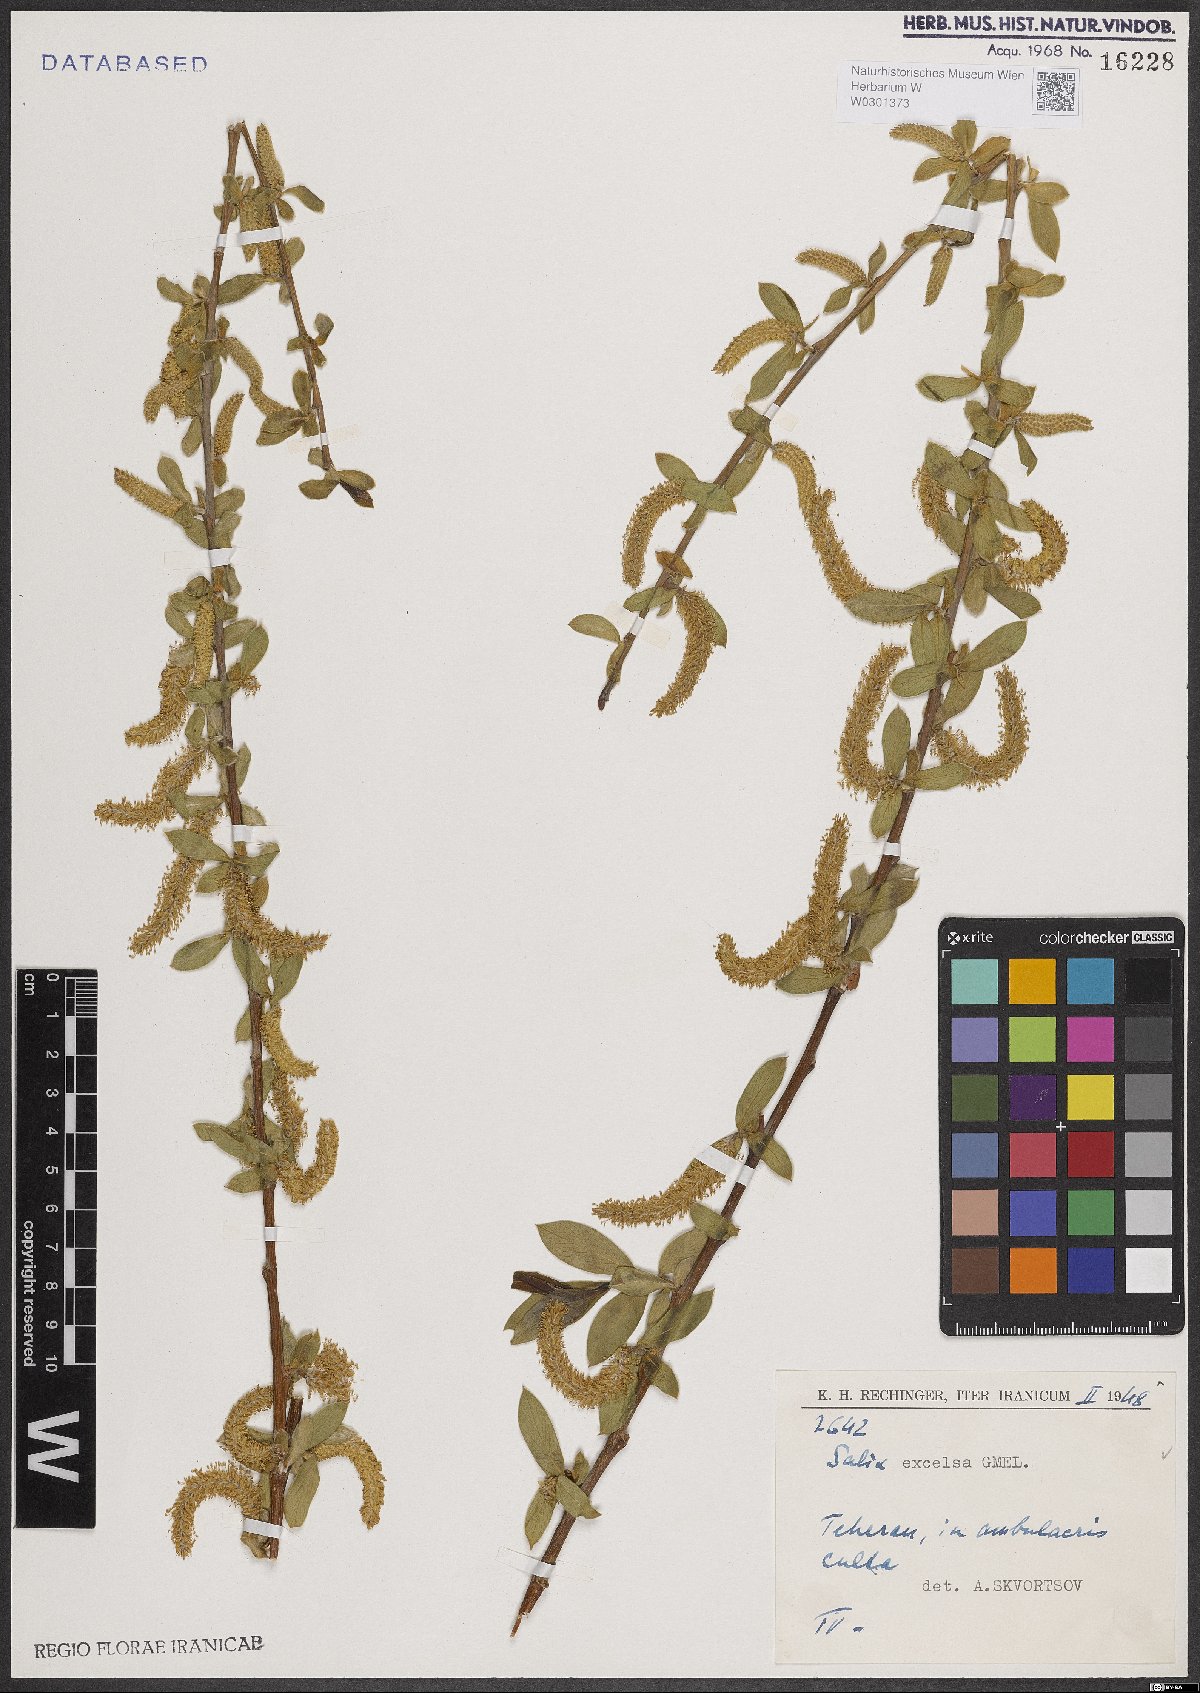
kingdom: Plantae
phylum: Tracheophyta
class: Magnoliopsida
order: Malpighiales
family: Salicaceae
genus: Salix
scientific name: Salix excelsa
